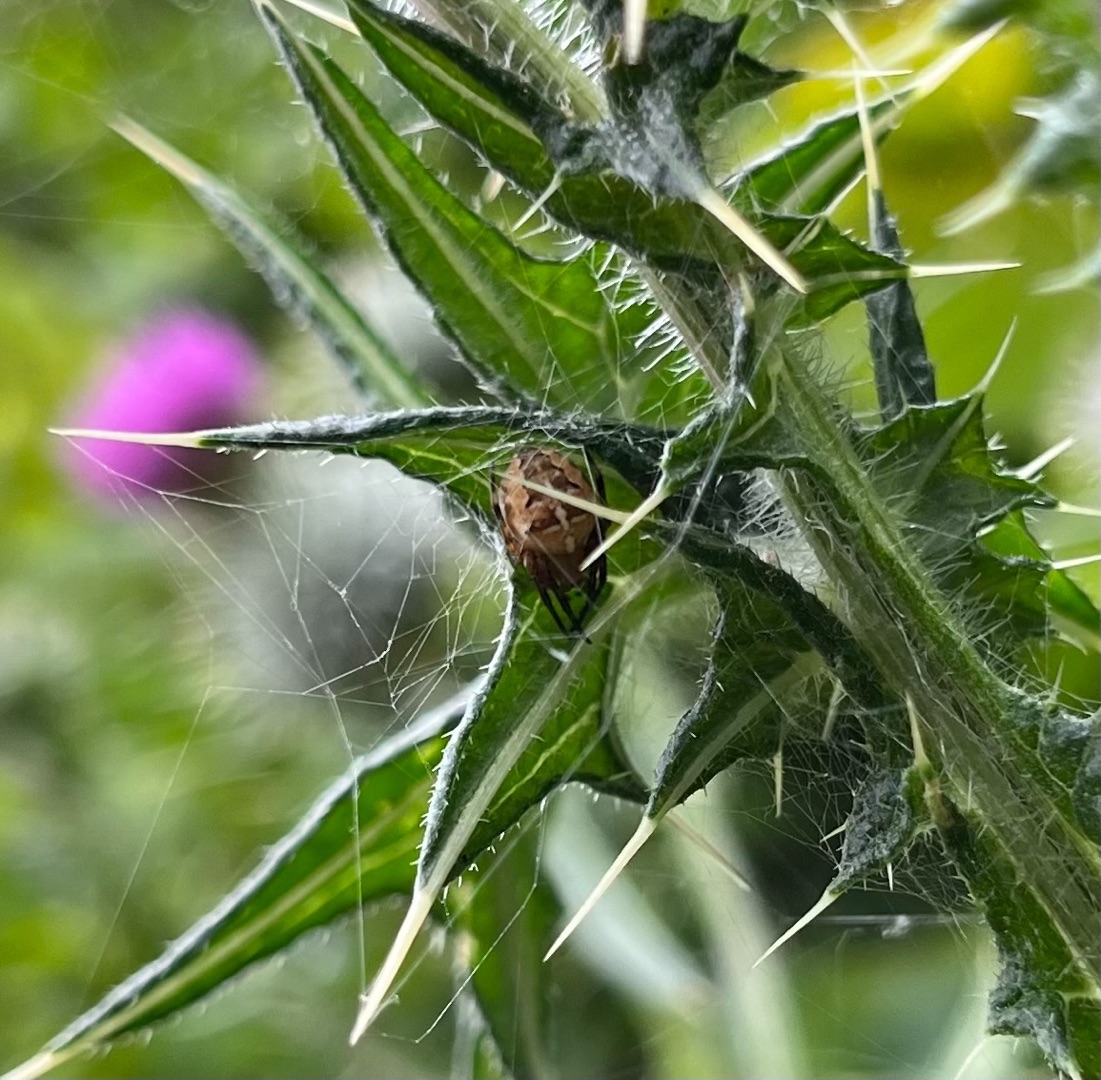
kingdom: Animalia
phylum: Arthropoda
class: Arachnida
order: Araneae
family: Araneidae
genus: Araneus
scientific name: Araneus diadematus
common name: Korsedderkop
